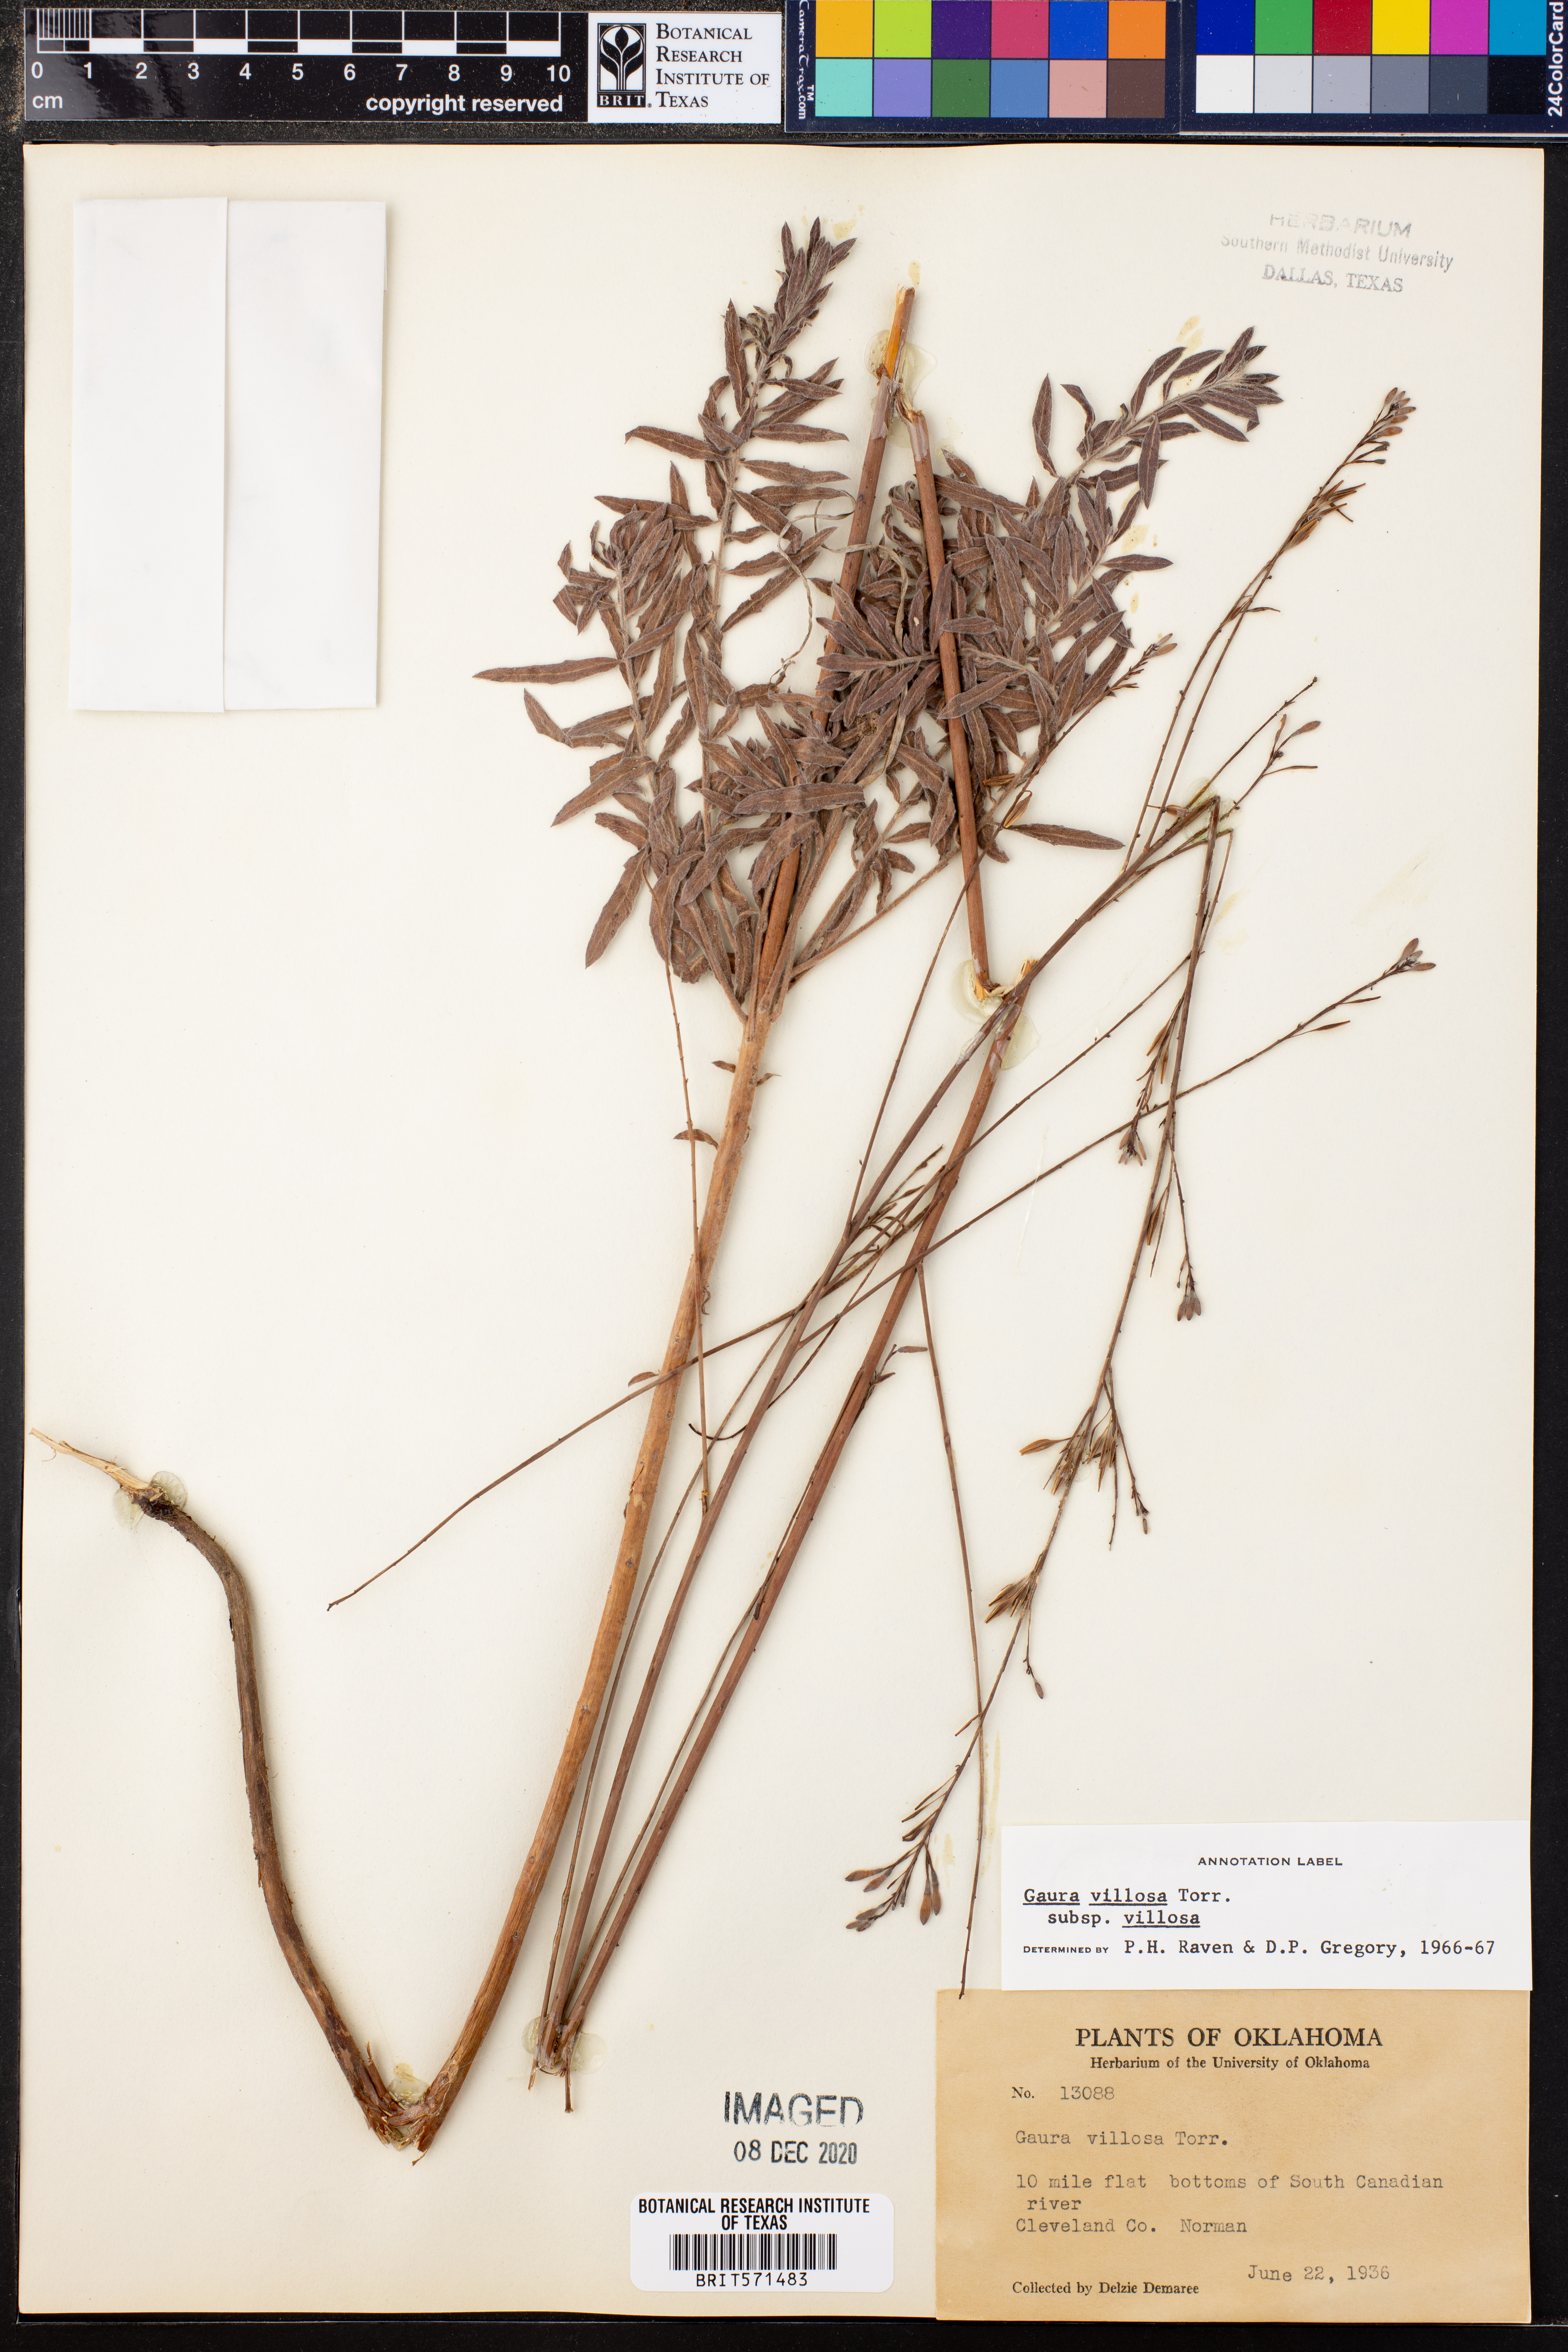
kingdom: Plantae
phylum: Tracheophyta
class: Magnoliopsida
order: Myrtales
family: Onagraceae
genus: Oenothera
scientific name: Oenothera cinerea
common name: Woolly beeblossom
